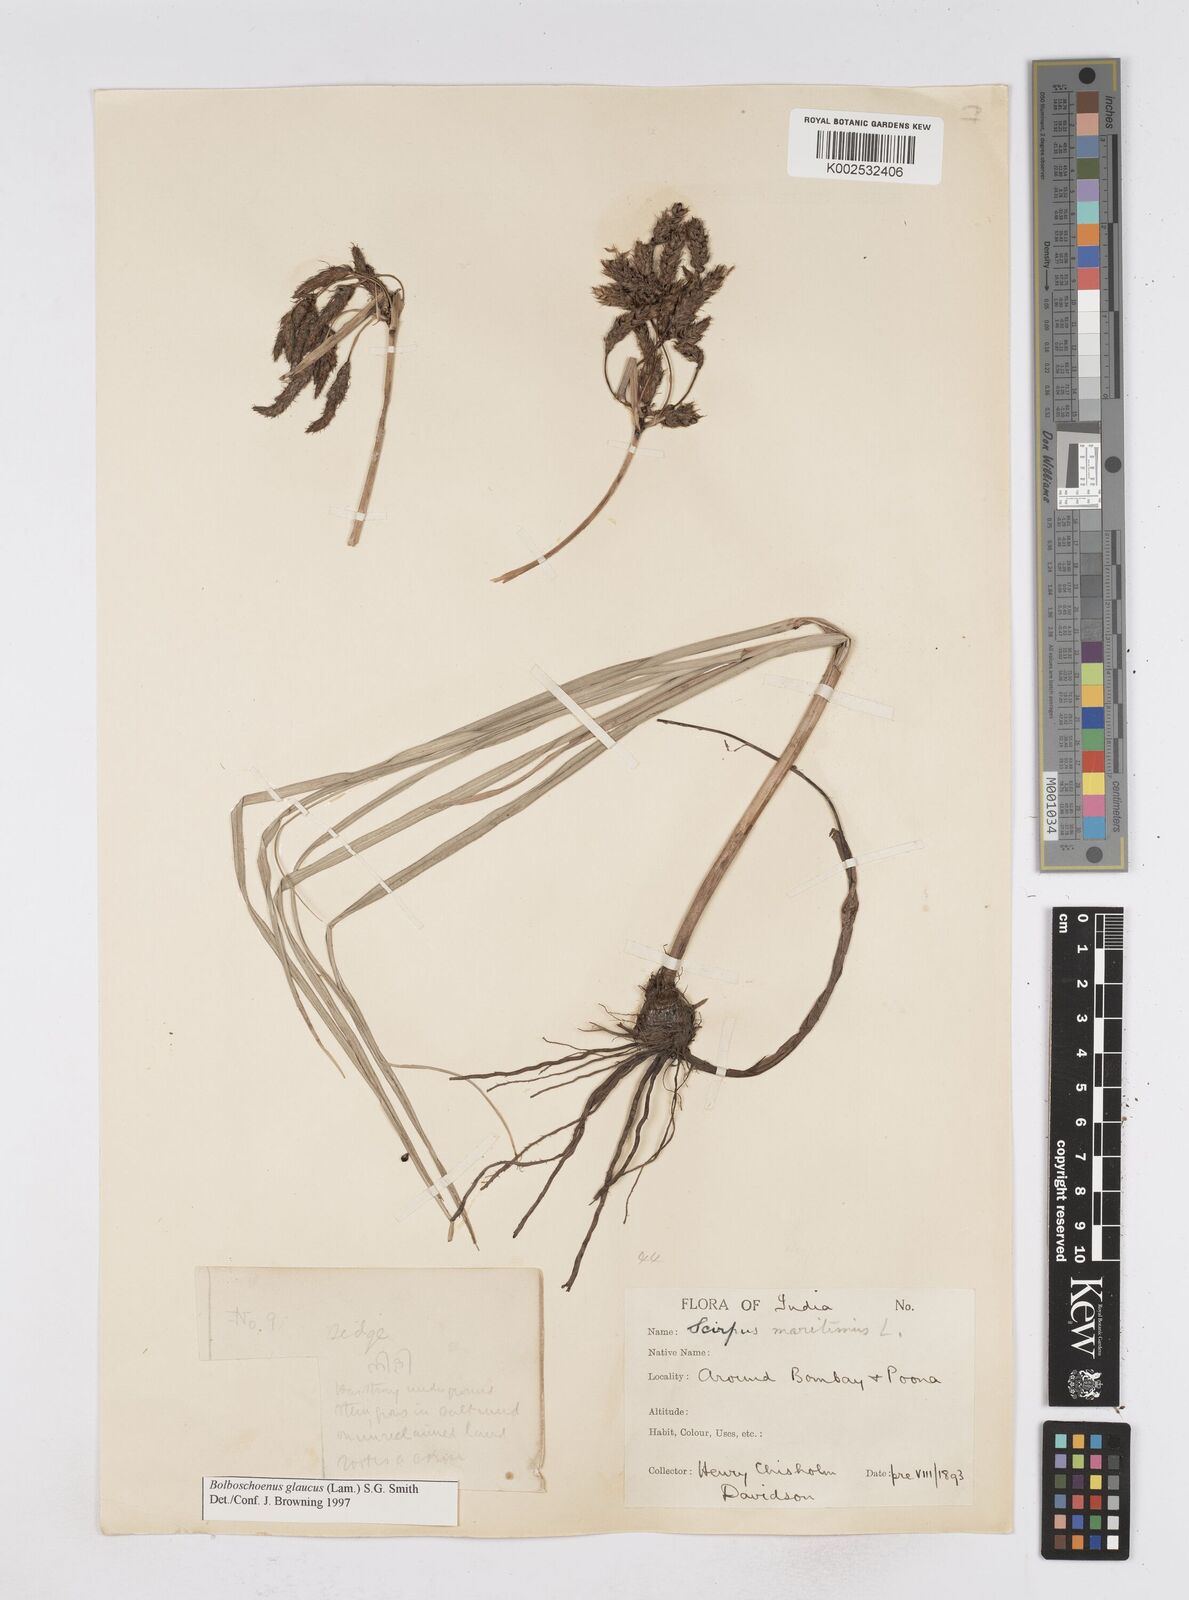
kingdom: Plantae
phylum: Tracheophyta
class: Liliopsida
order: Poales
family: Cyperaceae
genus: Bolboschoenus
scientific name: Bolboschoenus maritimus
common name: Sea club-rush
